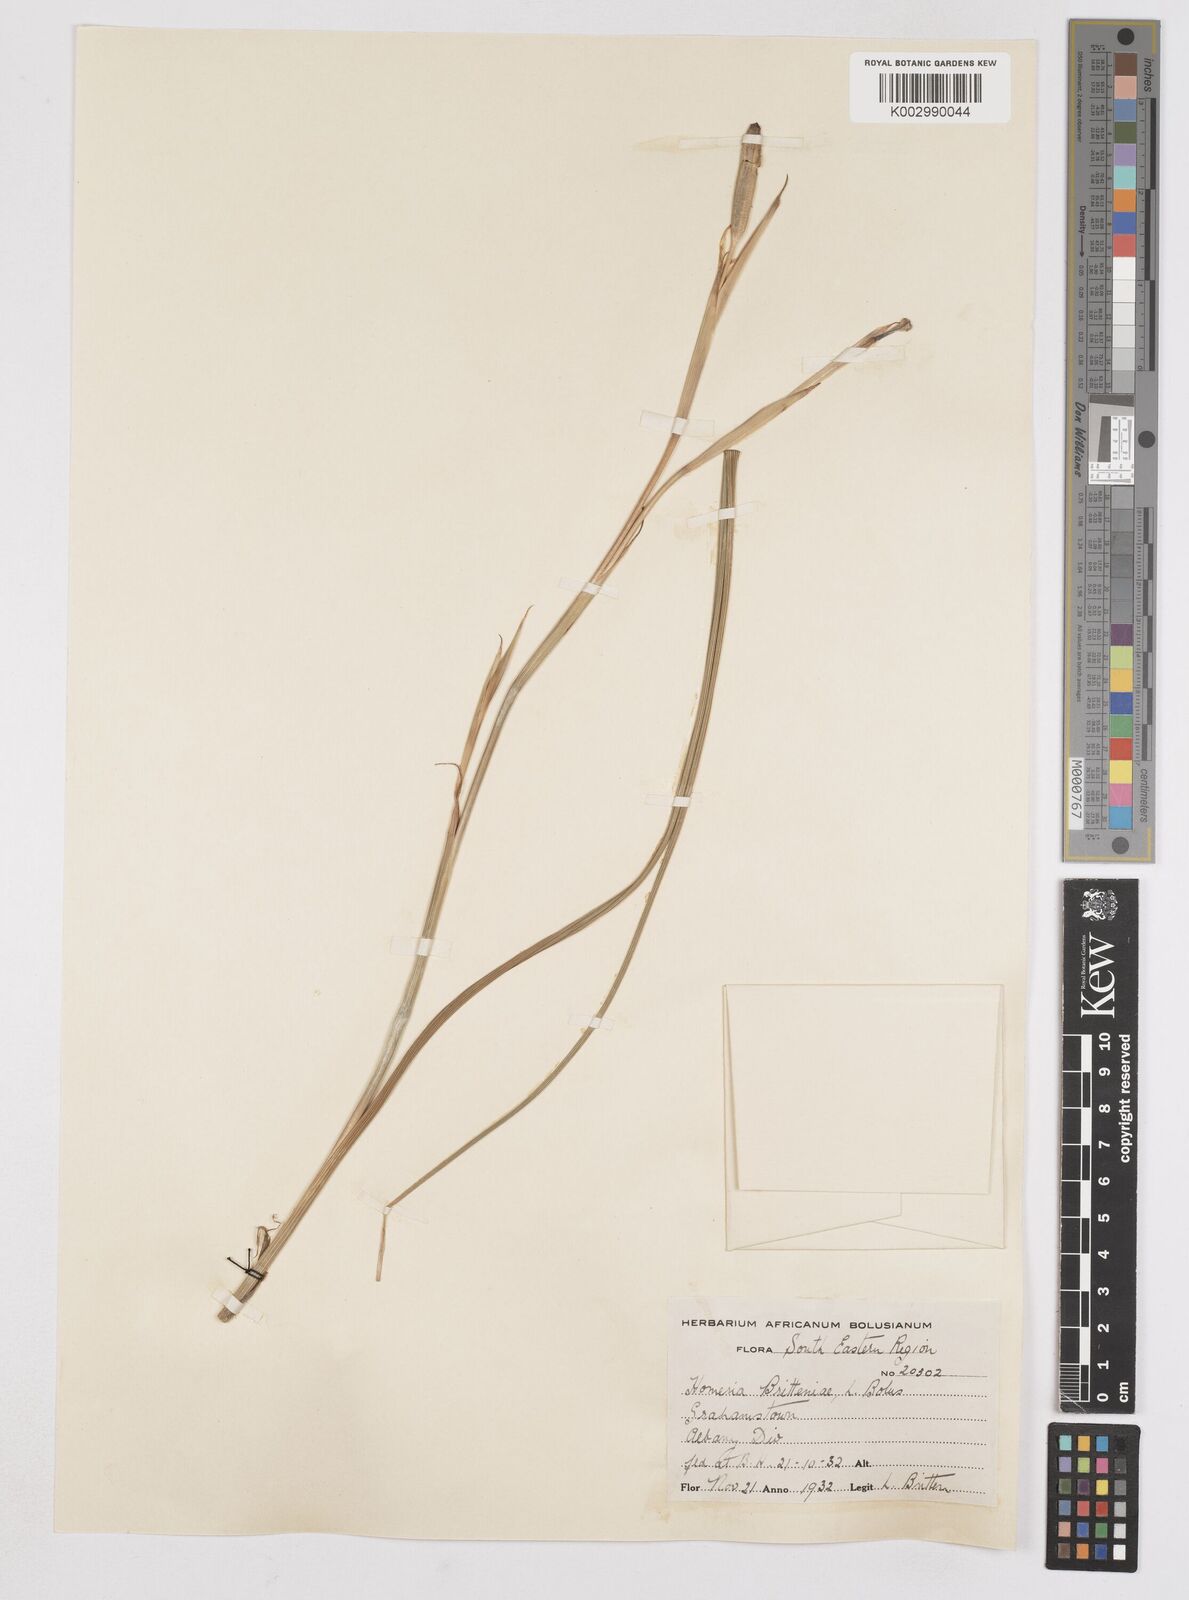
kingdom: Plantae
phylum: Tracheophyta
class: Liliopsida
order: Asparagales
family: Iridaceae
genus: Moraea
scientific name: Moraea britteniae
